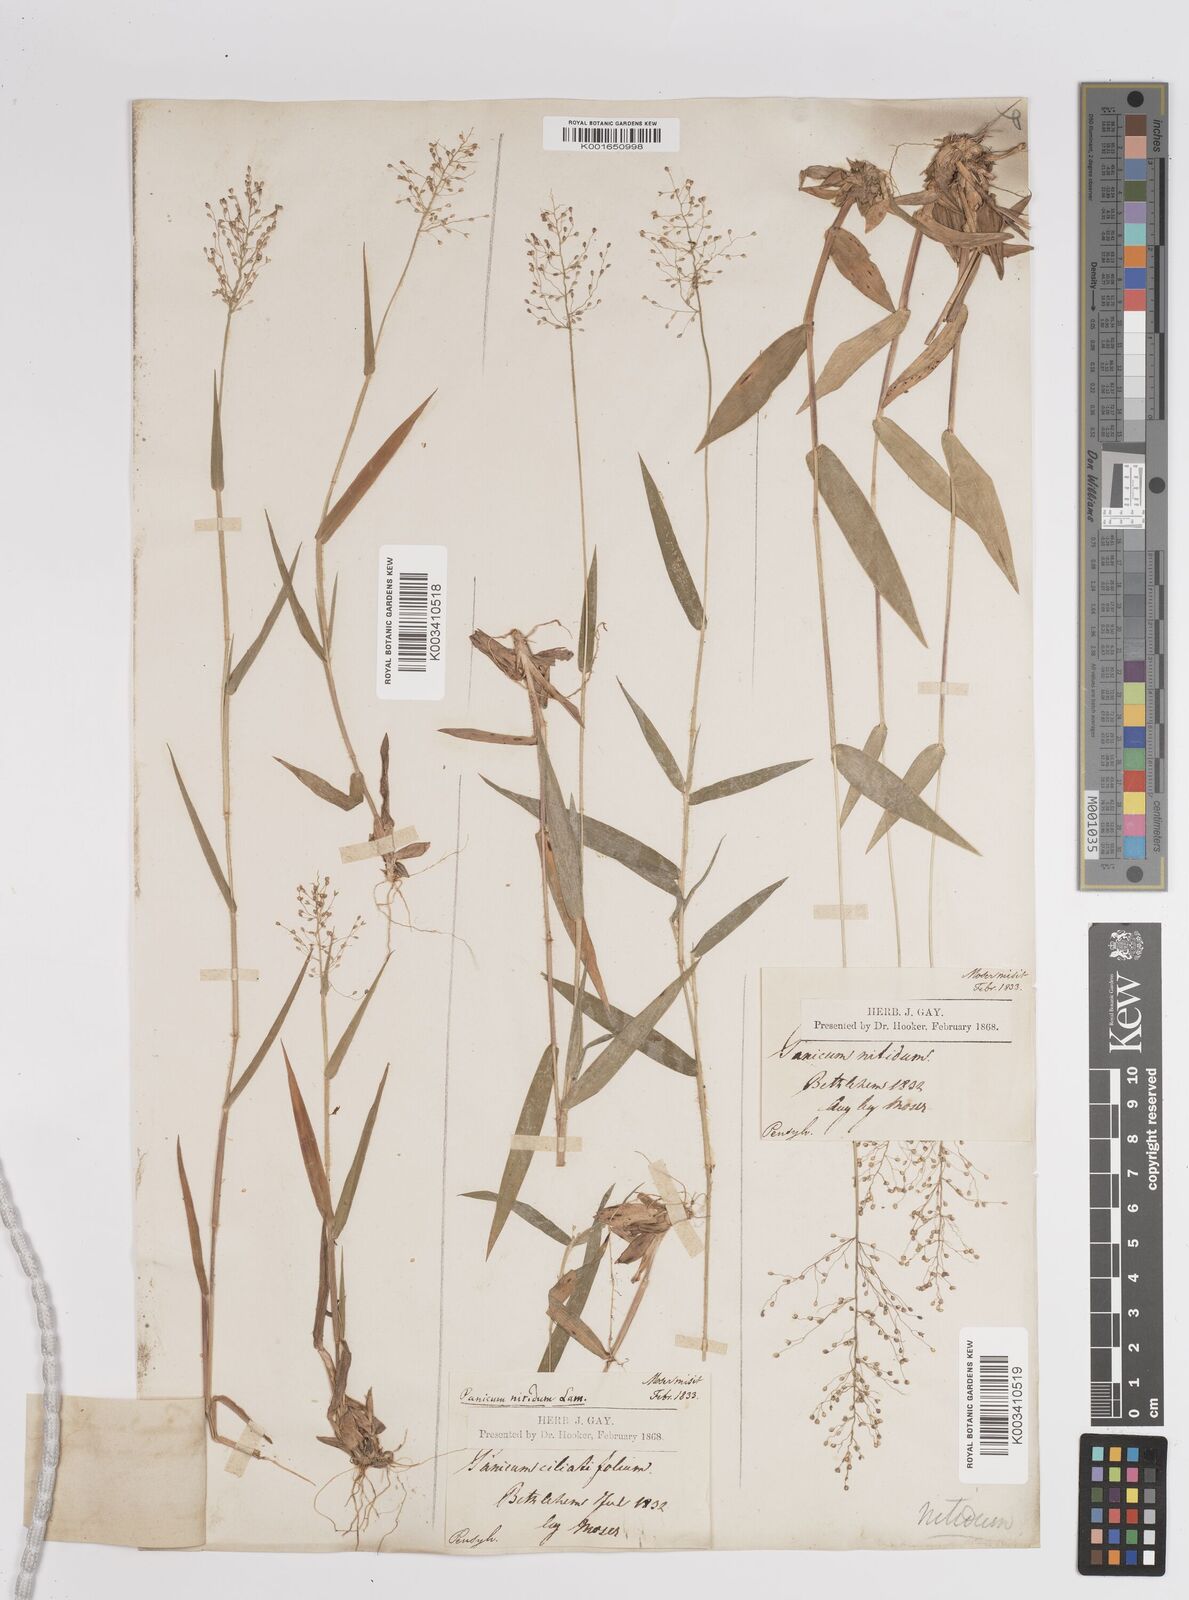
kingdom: Plantae
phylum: Tracheophyta
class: Liliopsida
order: Poales
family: Poaceae
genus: Dichanthelium
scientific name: Dichanthelium polyanthes
